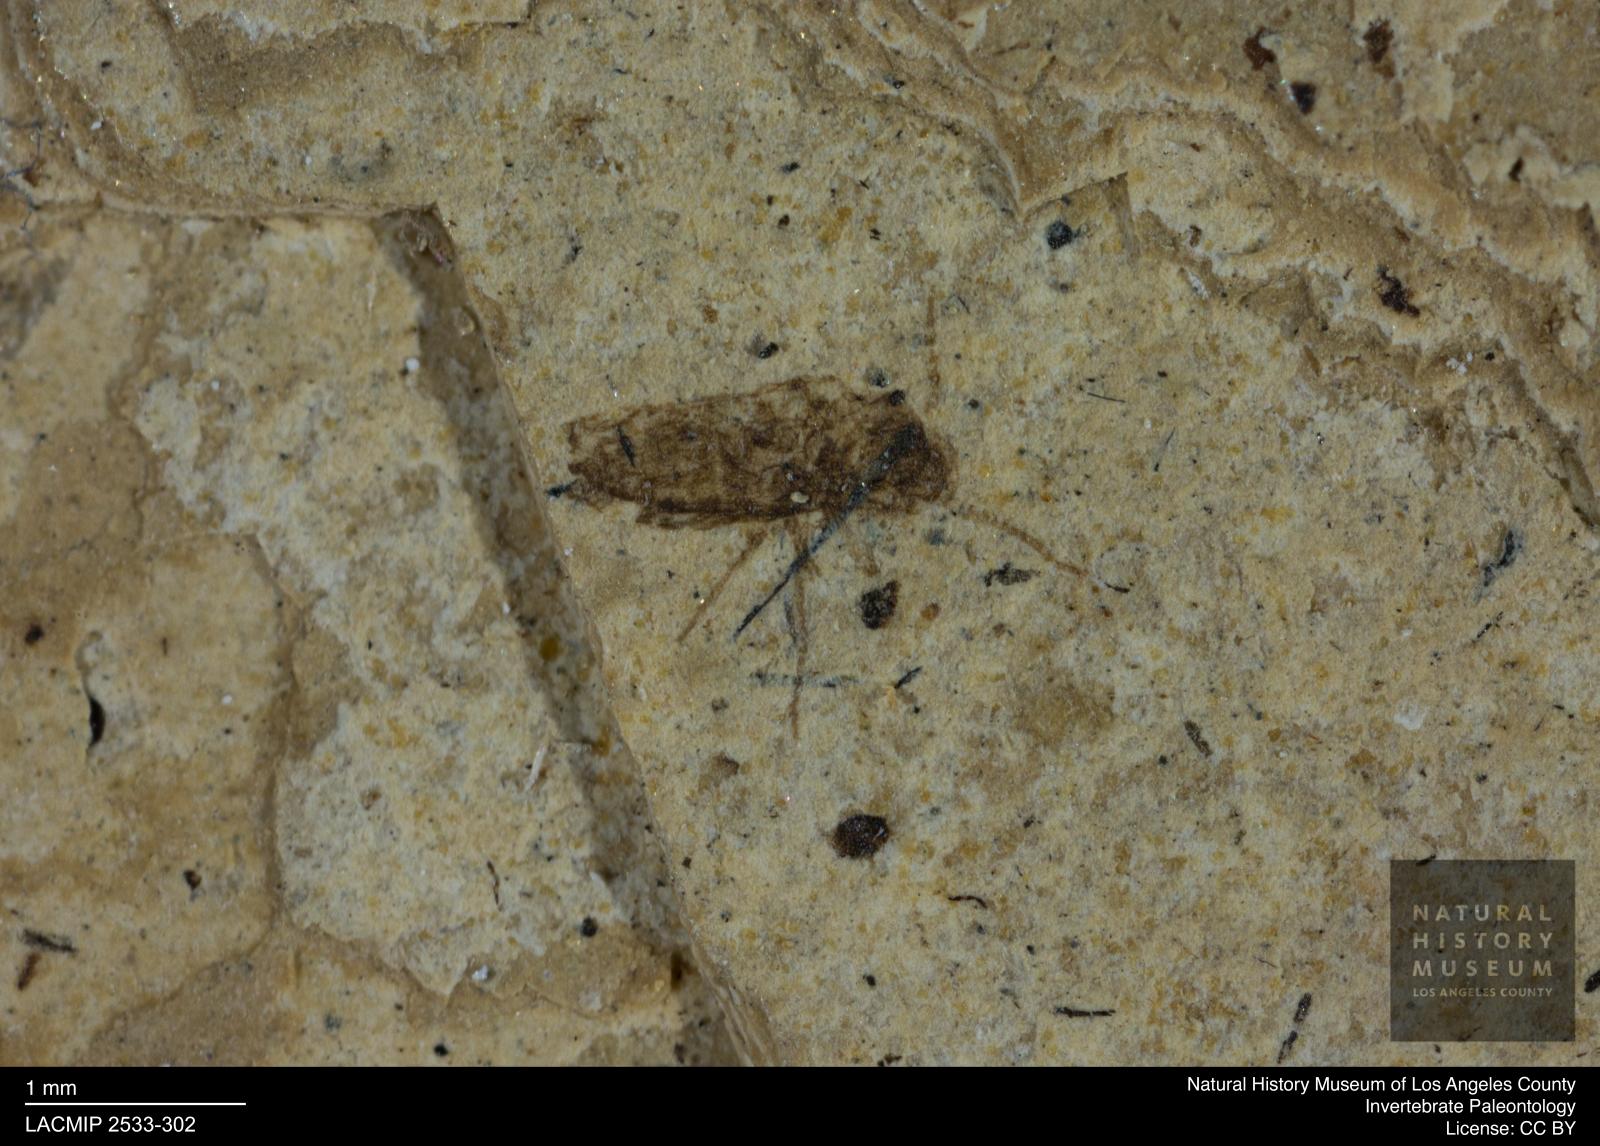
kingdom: Animalia
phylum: Arthropoda
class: Insecta
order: Diptera
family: Ceratopogonidae
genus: Atrichopogon
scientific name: Atrichopogon brunnescens
